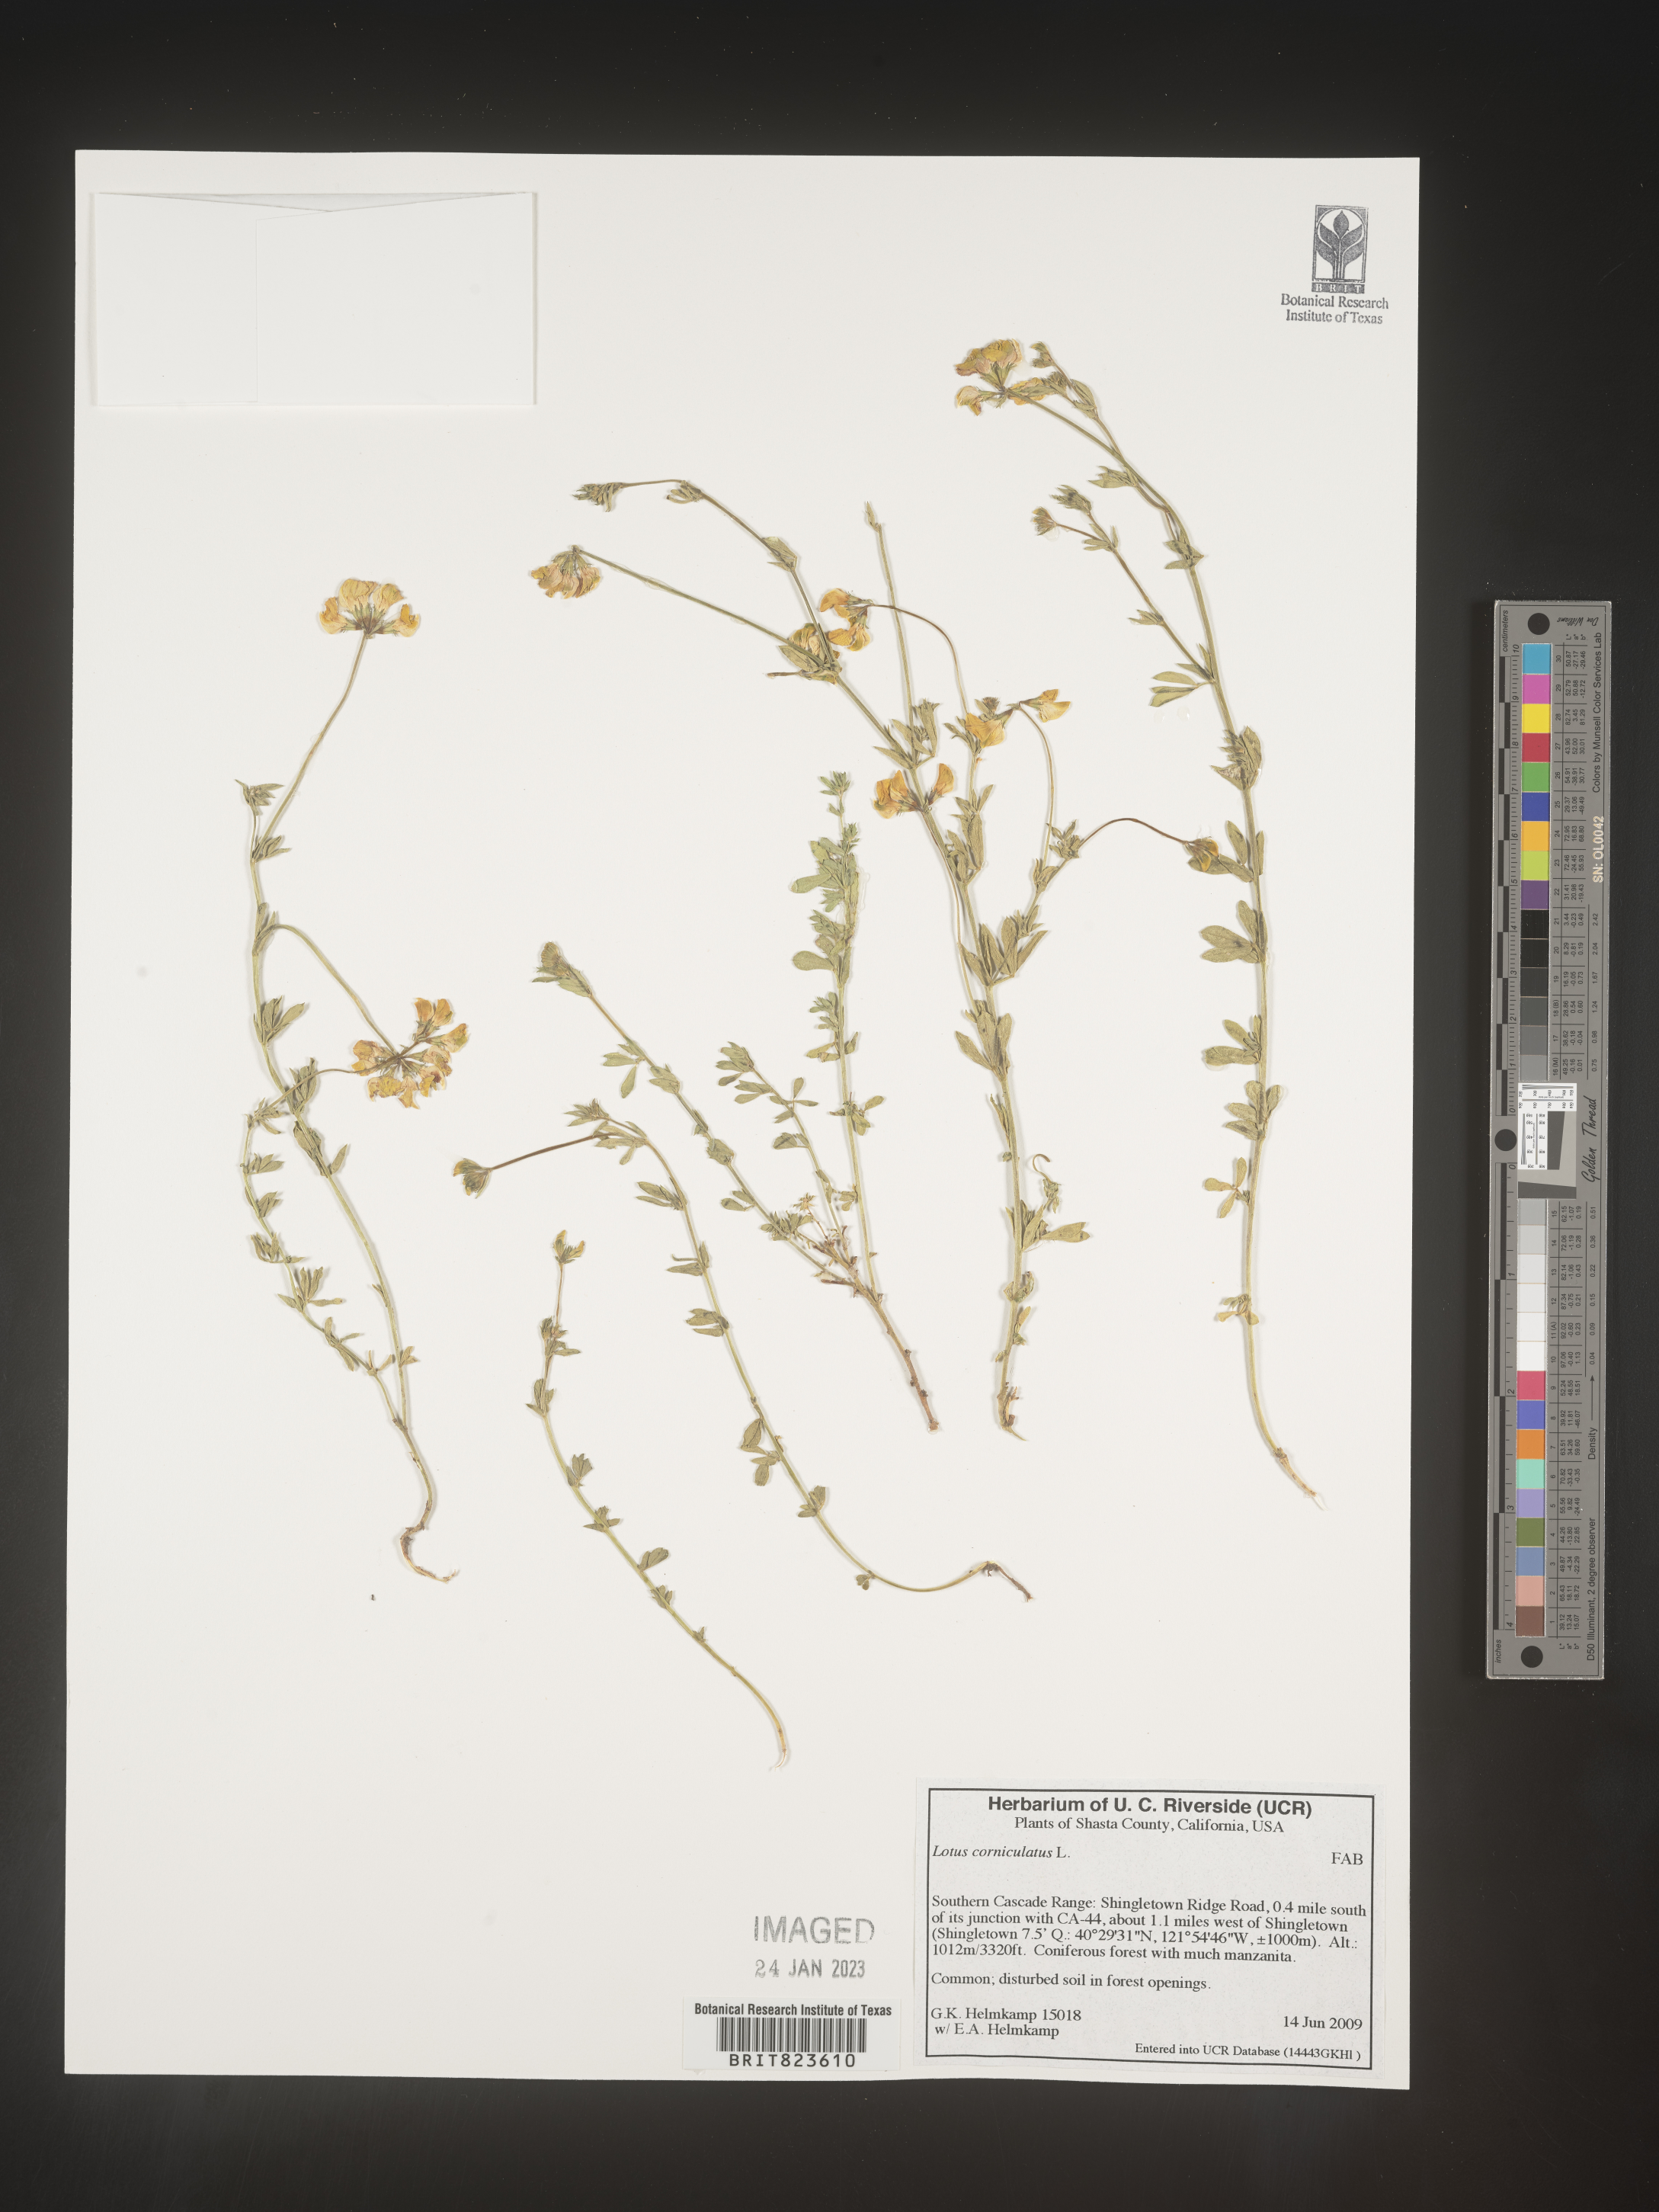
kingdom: Plantae
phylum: Tracheophyta
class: Magnoliopsida
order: Fabales
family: Fabaceae
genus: Lotus
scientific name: Lotus corniculatus
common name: Common bird's-foot-trefoil
